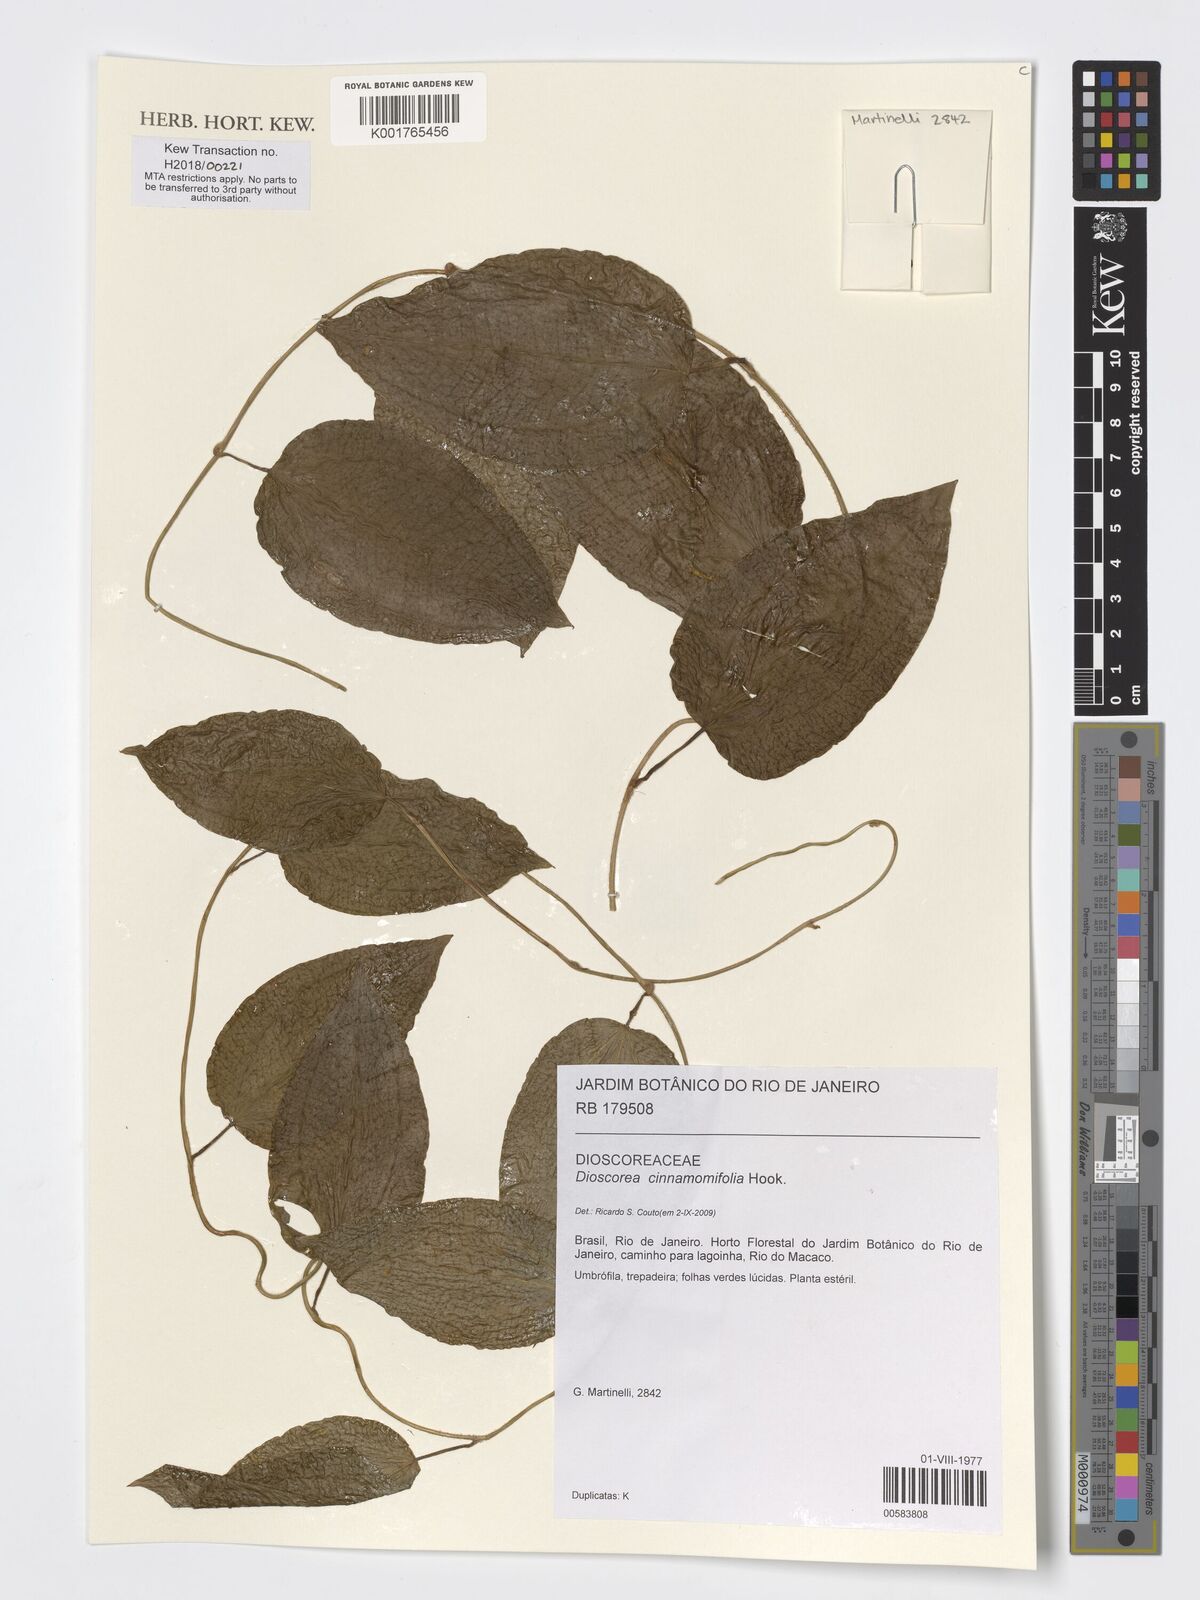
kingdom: Plantae
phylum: Tracheophyta
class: Liliopsida
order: Dioscoreales
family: Dioscoreaceae
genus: Dioscorea
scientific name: Dioscorea cinnamomifolia
